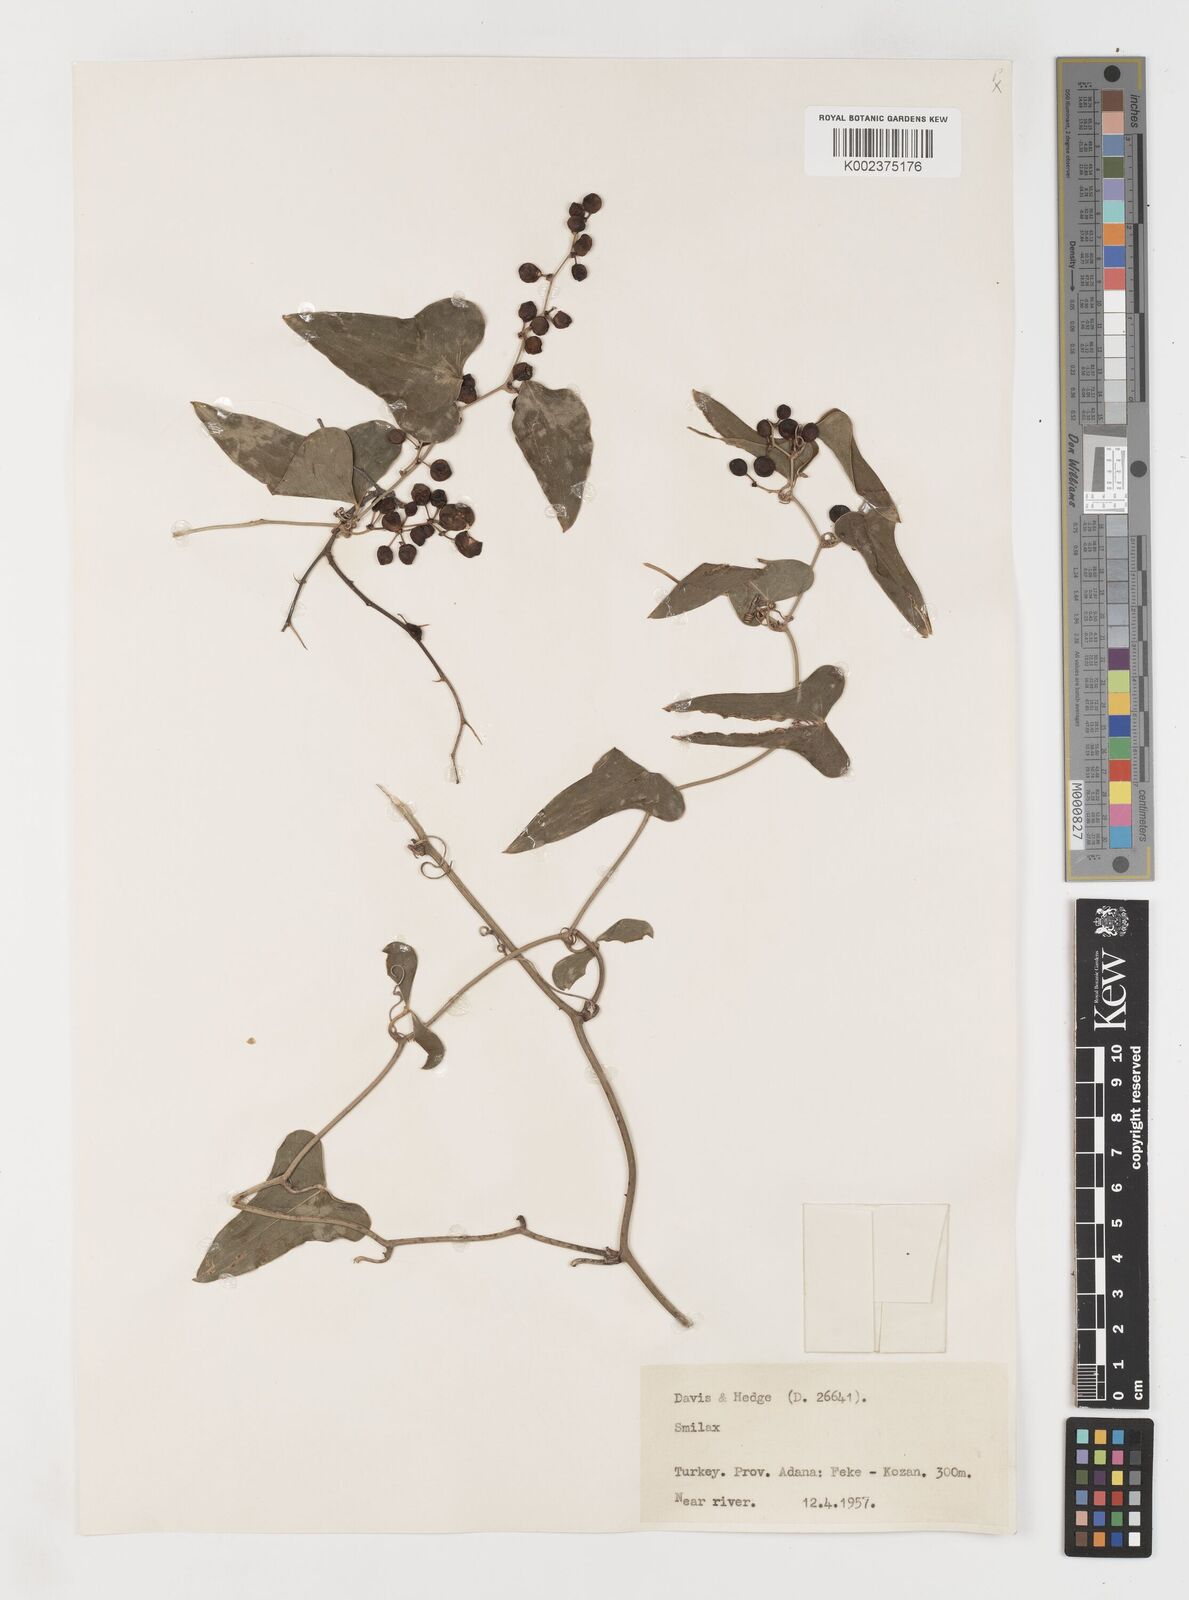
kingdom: Plantae
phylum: Tracheophyta
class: Liliopsida
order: Liliales
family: Smilacaceae
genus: Smilax
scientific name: Smilax aspera
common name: Common smilax
